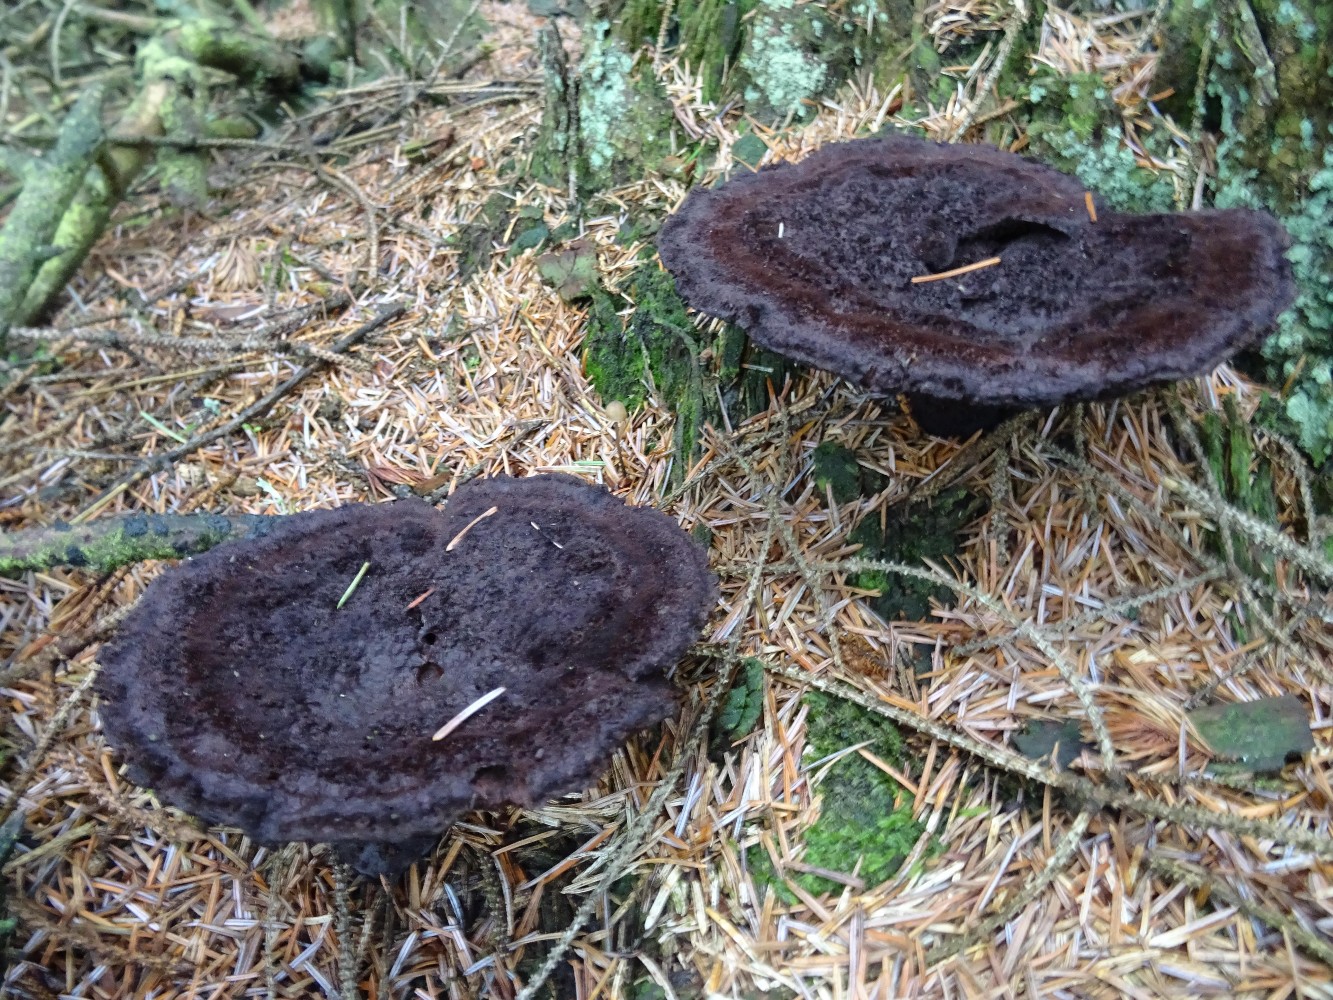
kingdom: Fungi
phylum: Basidiomycota
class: Agaricomycetes
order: Polyporales
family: Laetiporaceae
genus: Phaeolus
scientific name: Phaeolus schweinitzii
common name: brunporesvamp
